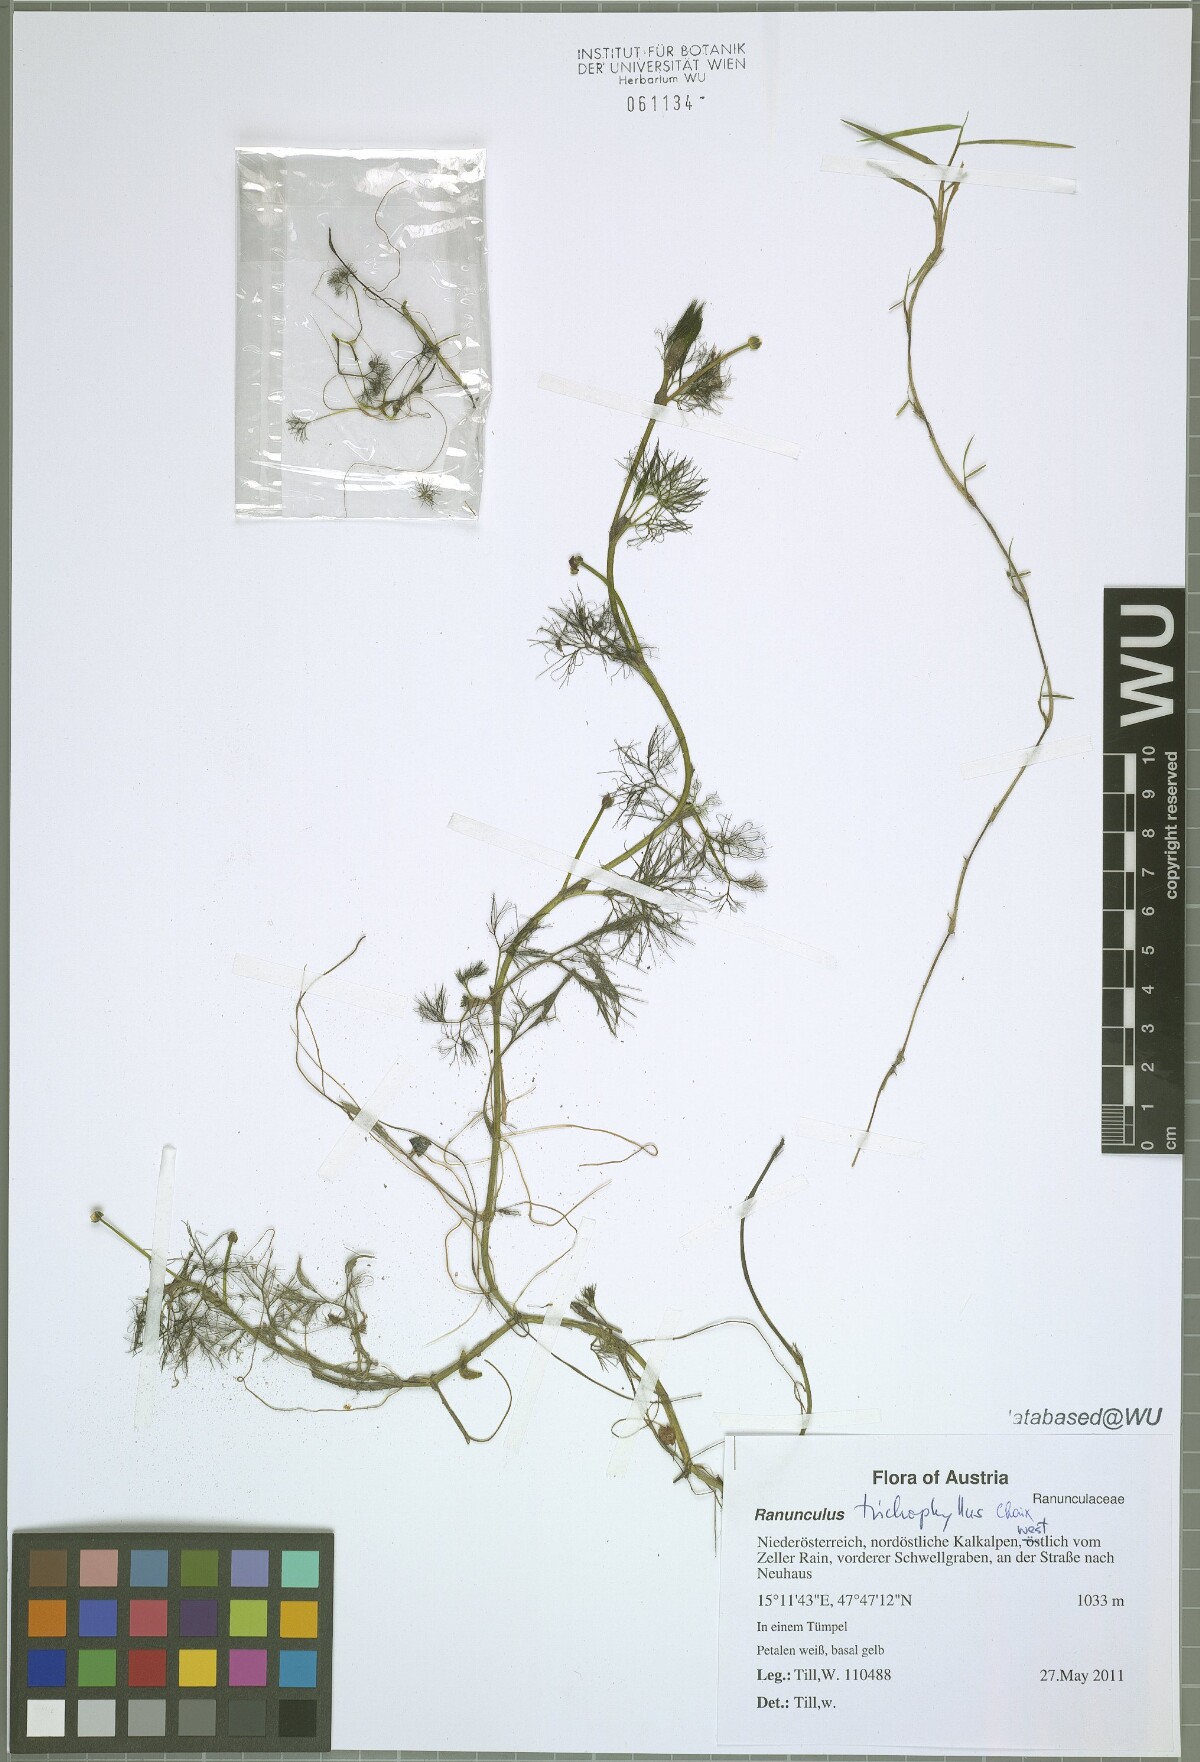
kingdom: Plantae
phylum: Tracheophyta
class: Magnoliopsida
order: Ranunculales
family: Ranunculaceae
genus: Ranunculus
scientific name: Ranunculus trichophyllus
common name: Thread-leaved water-crowfoot
